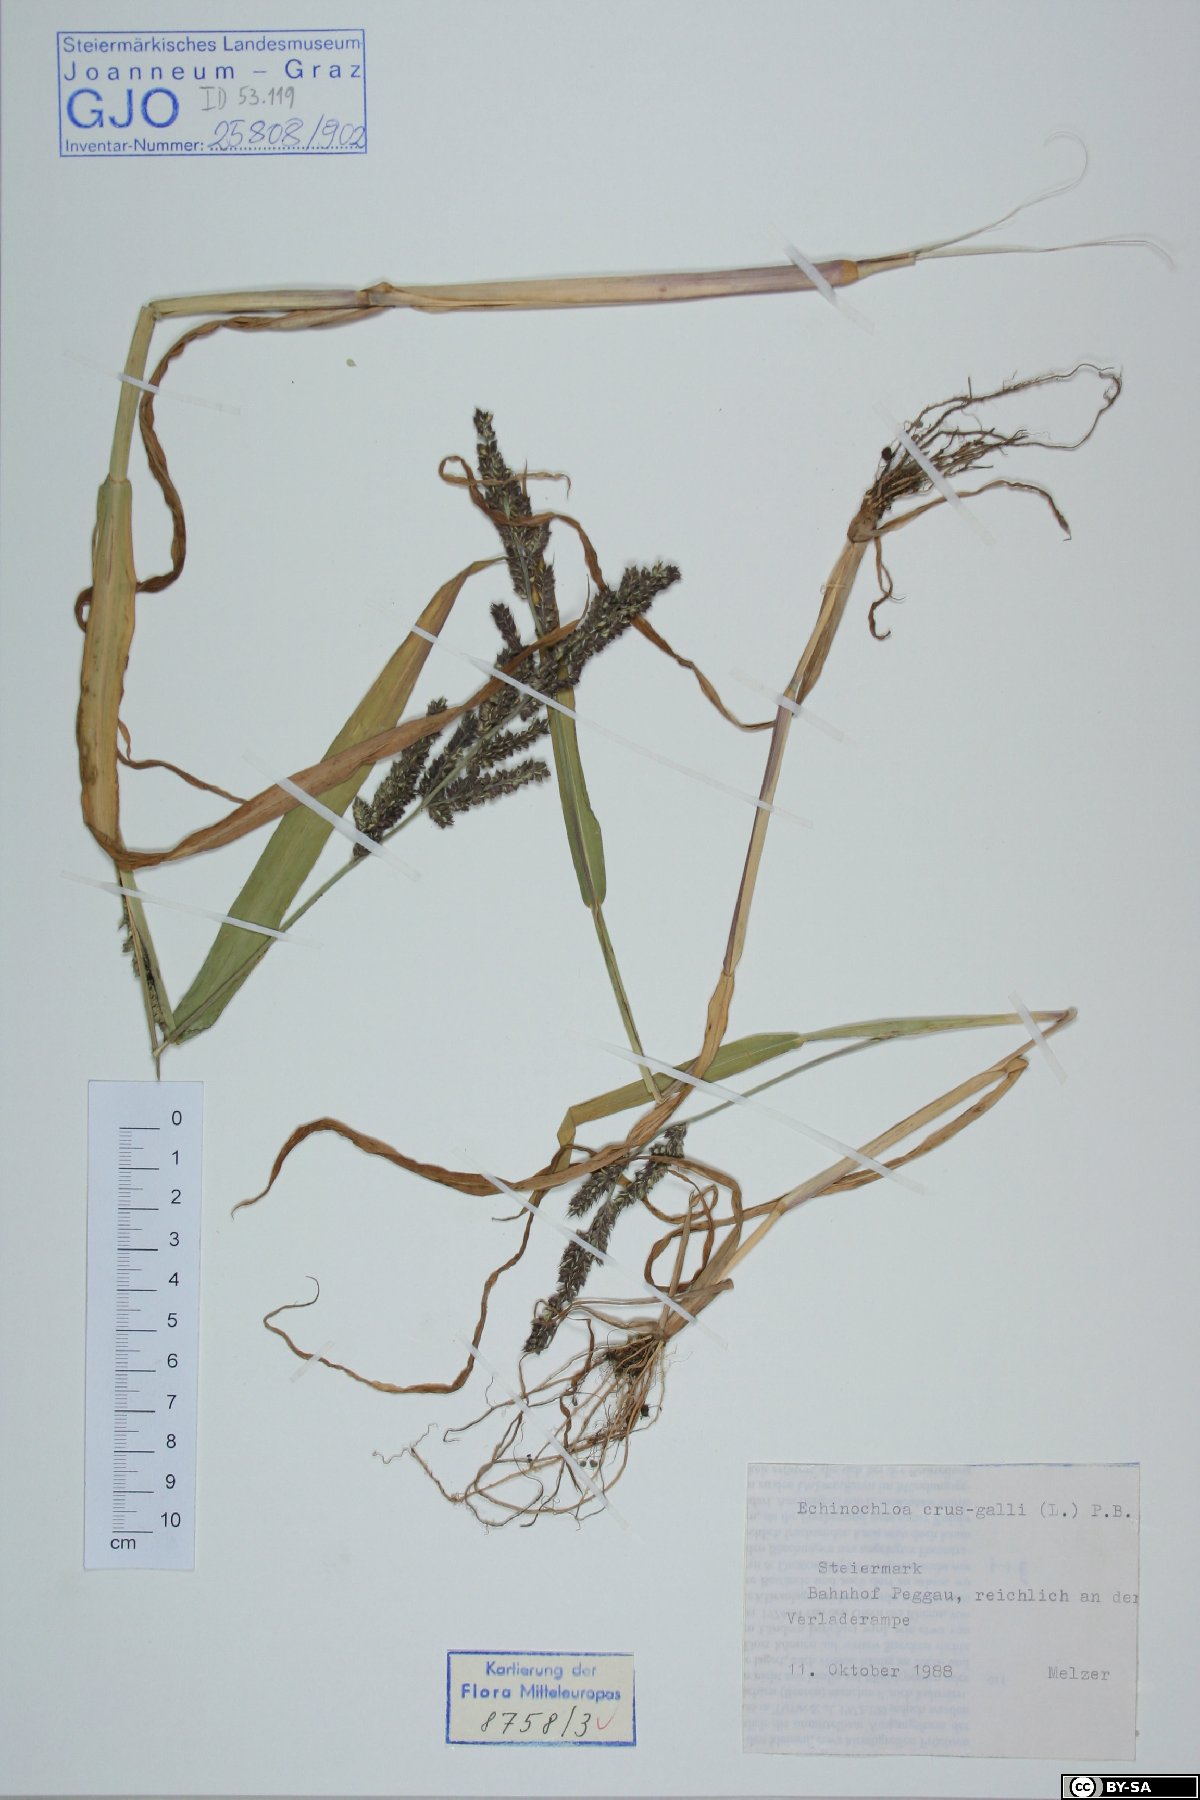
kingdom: Plantae
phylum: Tracheophyta
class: Liliopsida
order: Poales
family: Poaceae
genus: Echinochloa
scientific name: Echinochloa crus-galli
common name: Cockspur
